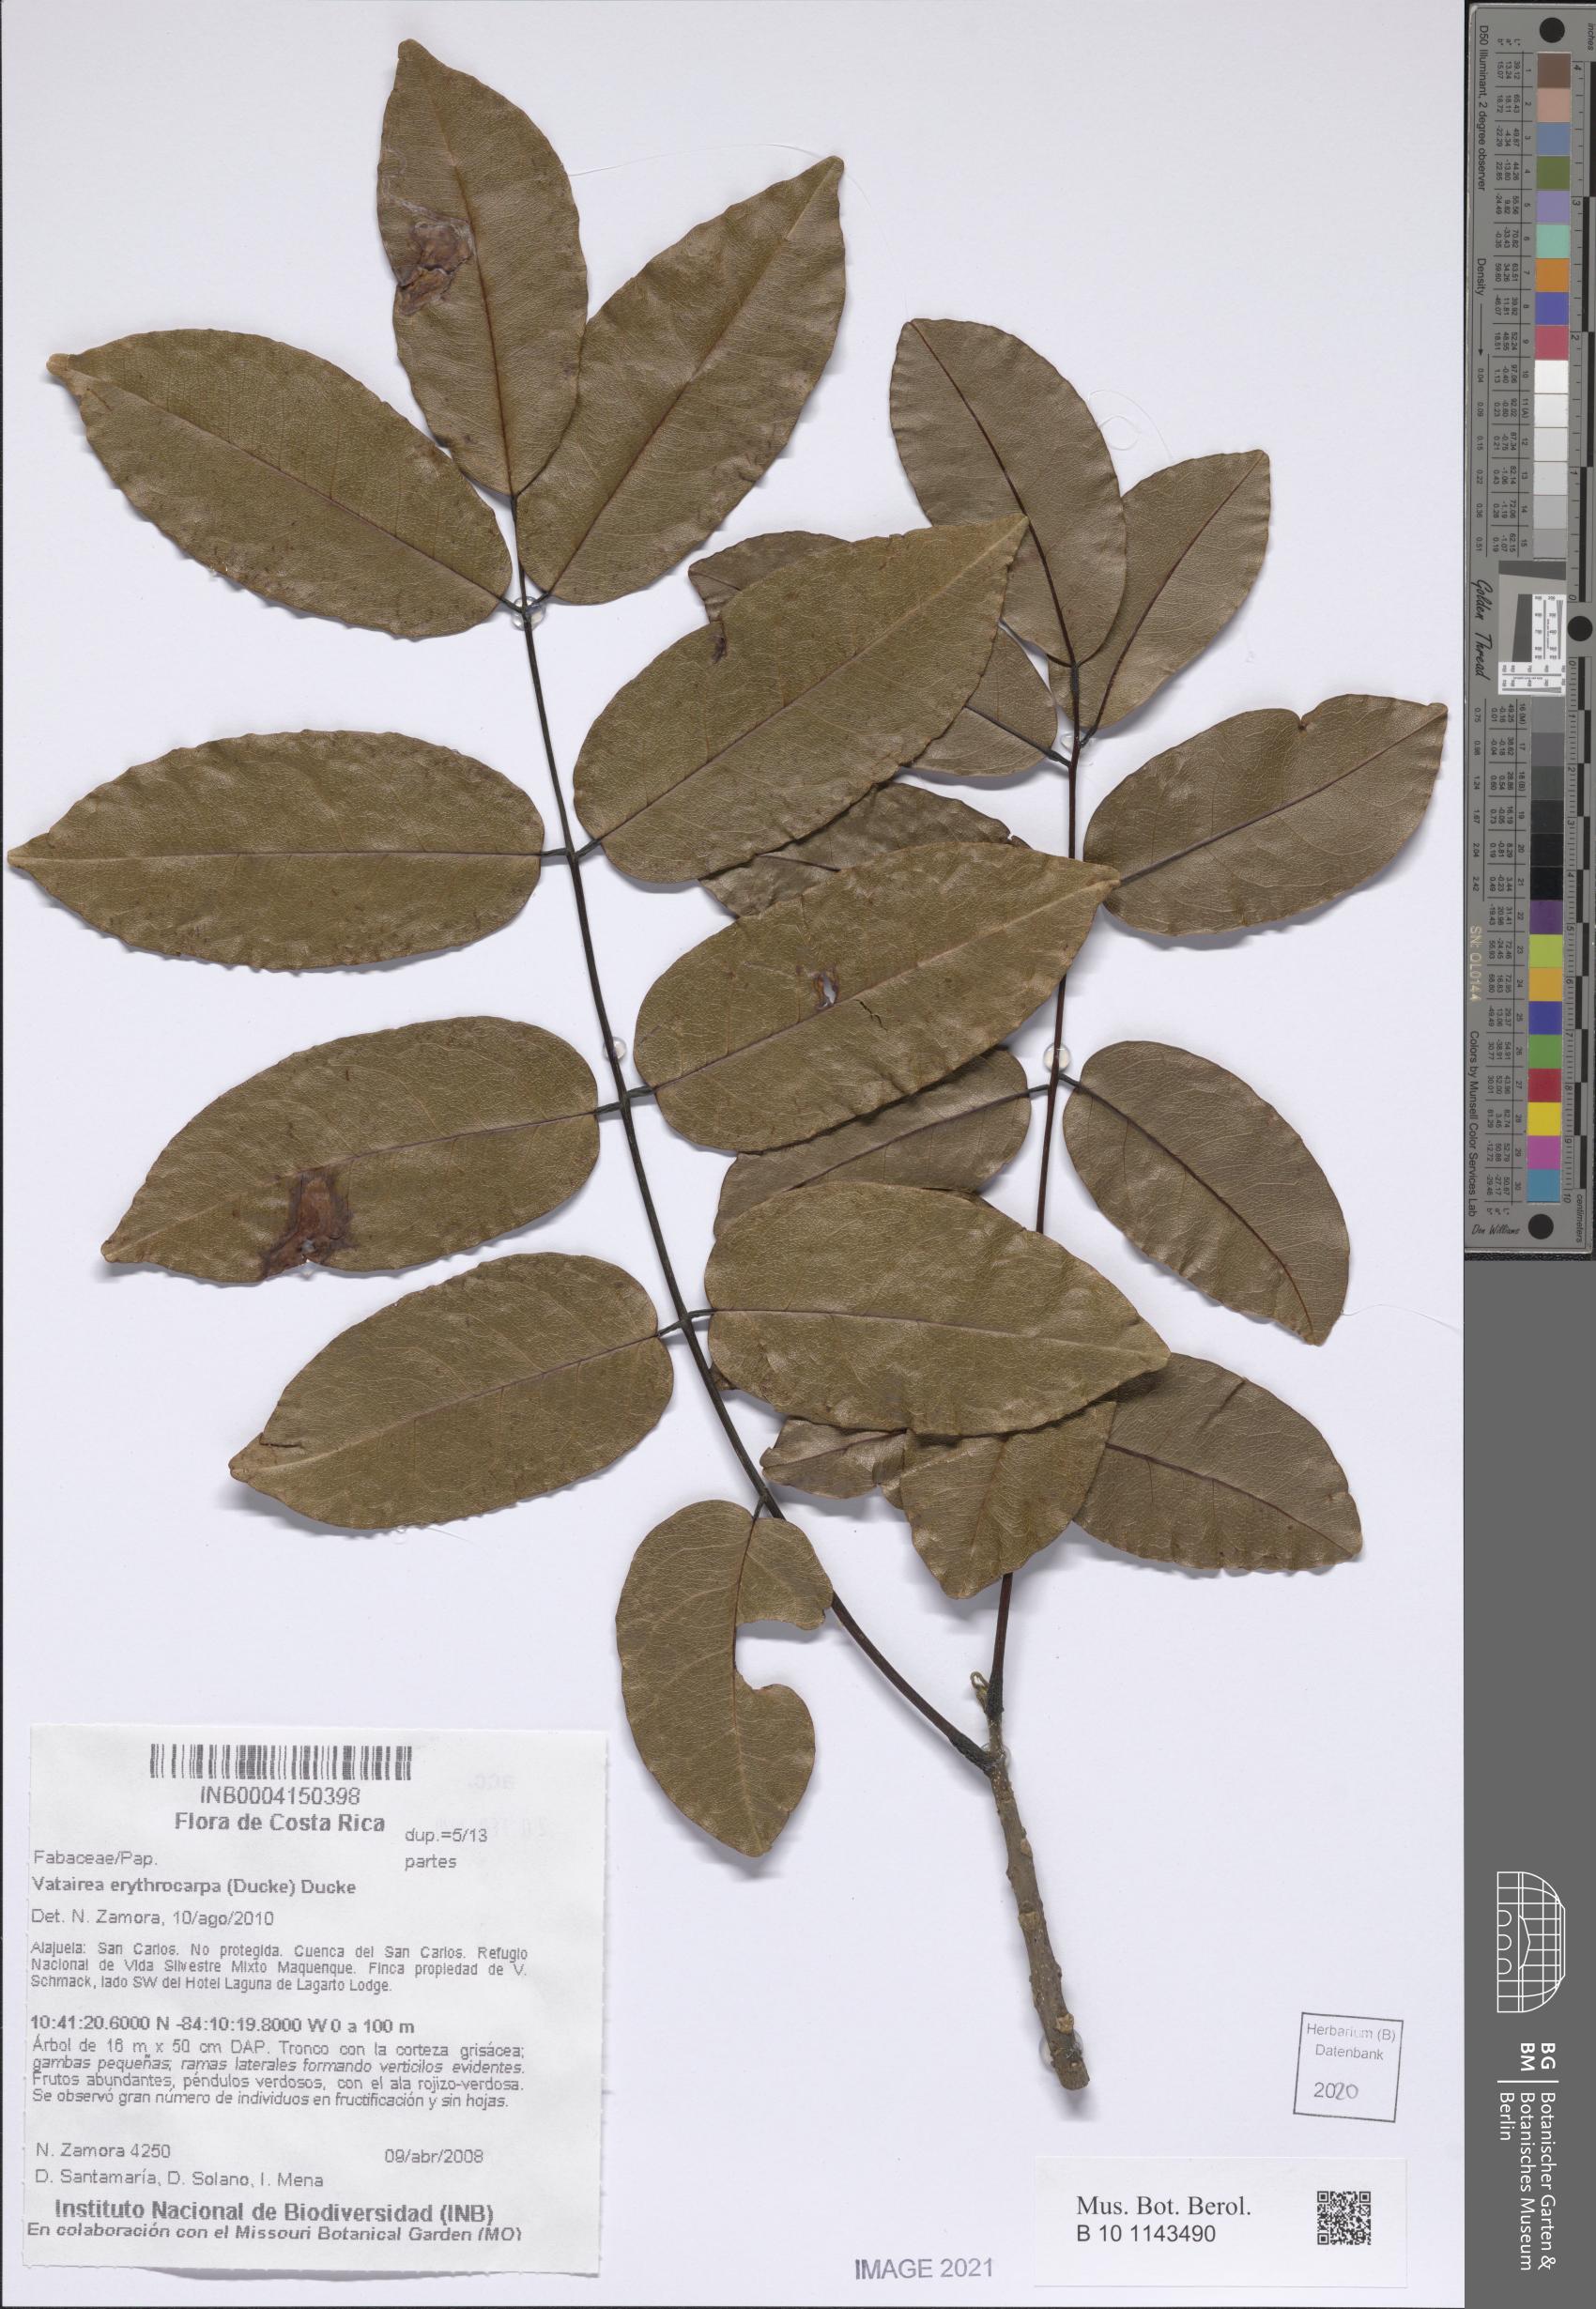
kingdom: Plantae
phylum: Tracheophyta
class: Magnoliopsida
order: Fabales
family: Fabaceae
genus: Vatairea
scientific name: Vatairea erythrocarpa
